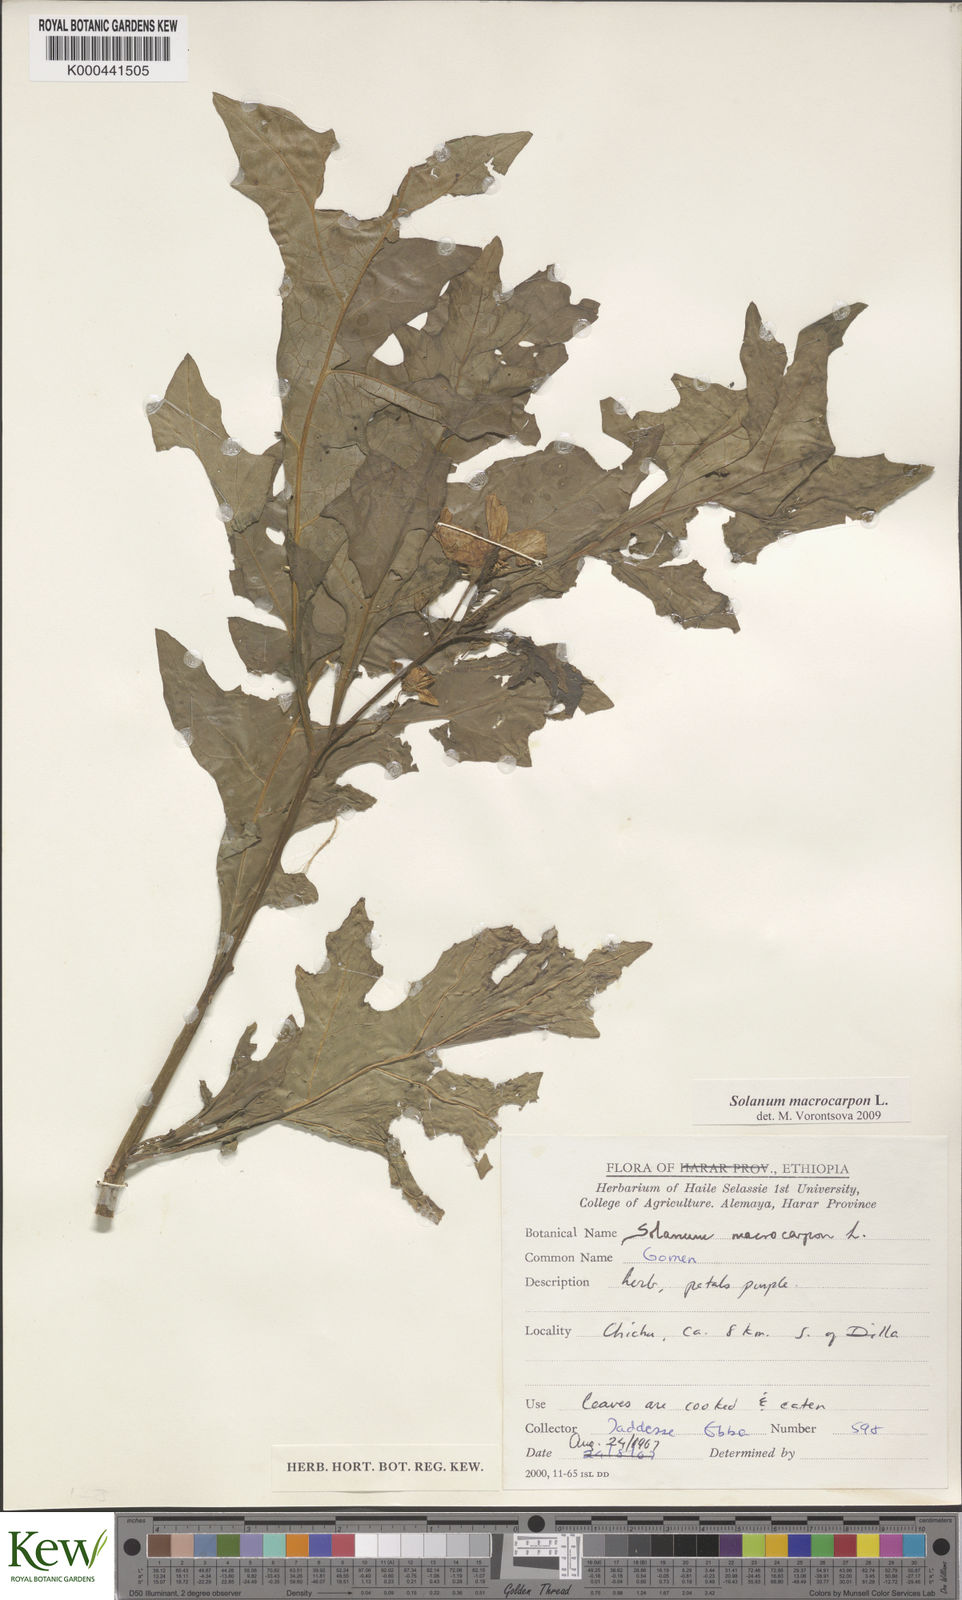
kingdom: Plantae
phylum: Tracheophyta
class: Magnoliopsida
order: Solanales
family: Solanaceae
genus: Solanum
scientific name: Solanum macrocarpon
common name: African eggplant
